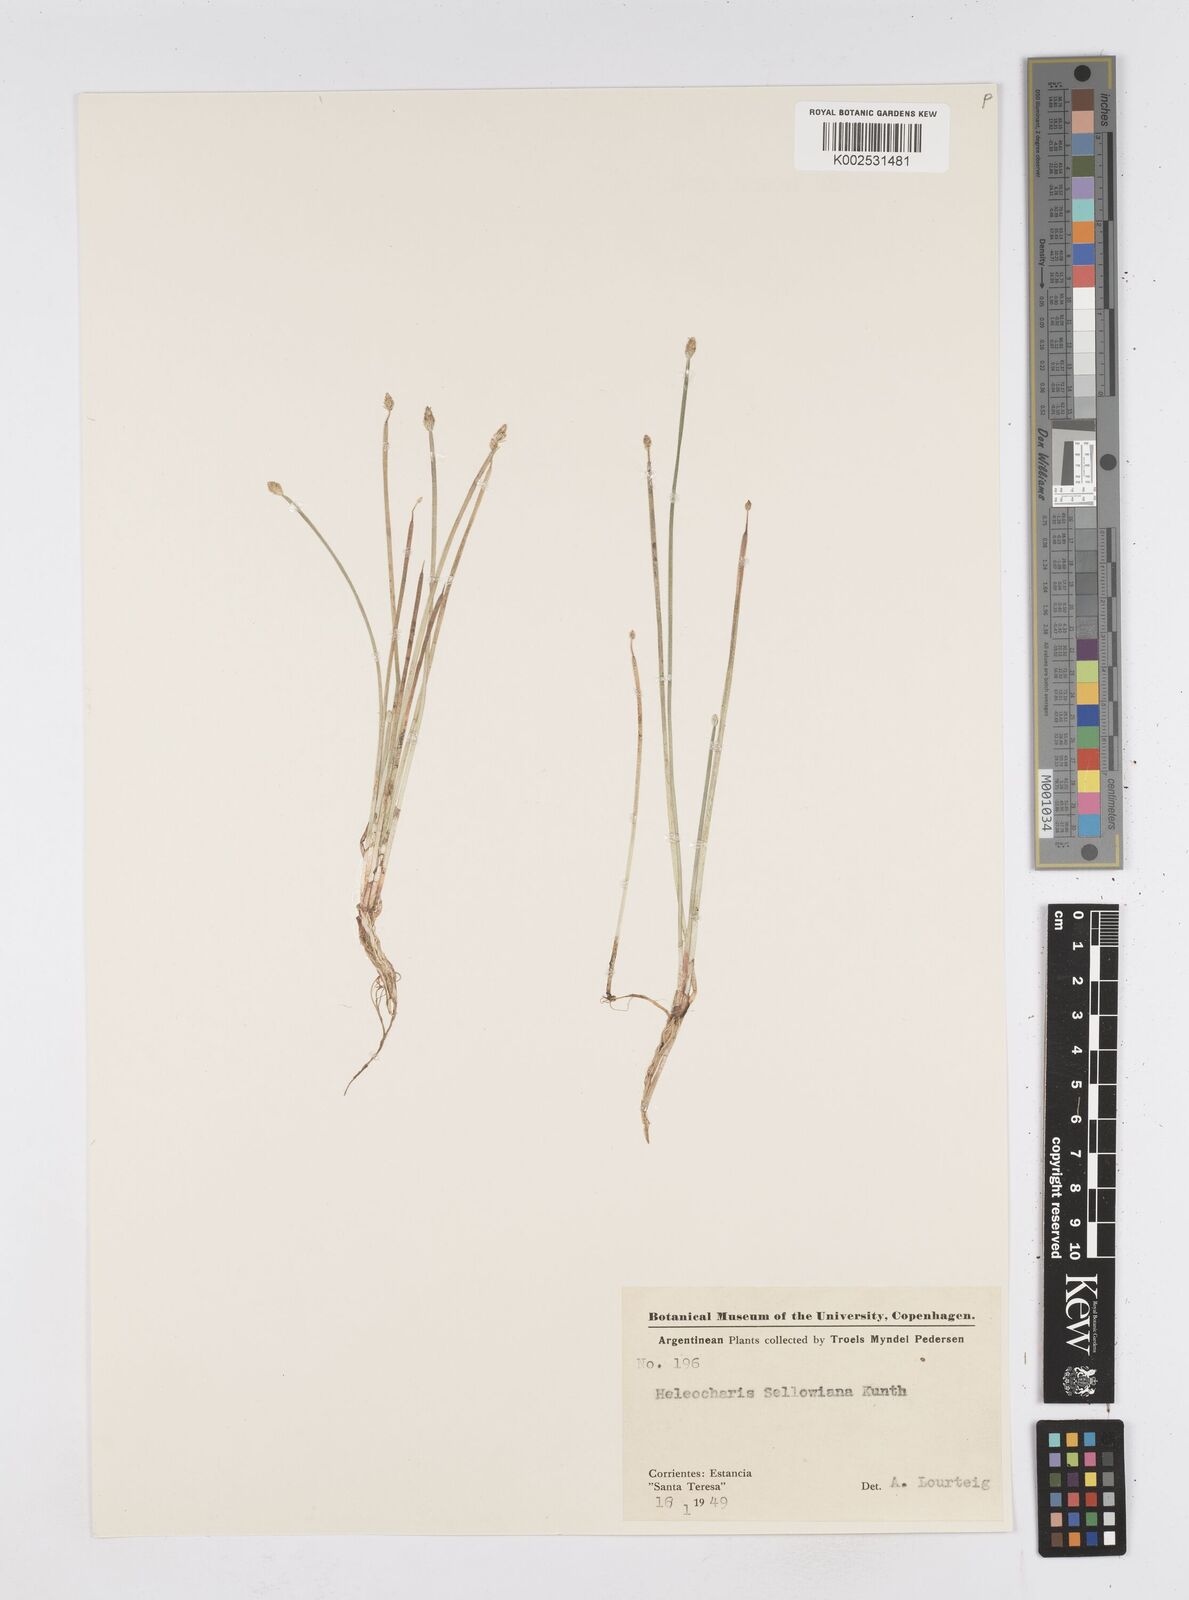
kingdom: Plantae
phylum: Tracheophyta
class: Liliopsida
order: Poales
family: Cyperaceae
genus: Eleocharis
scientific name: Eleocharis sellowiana
